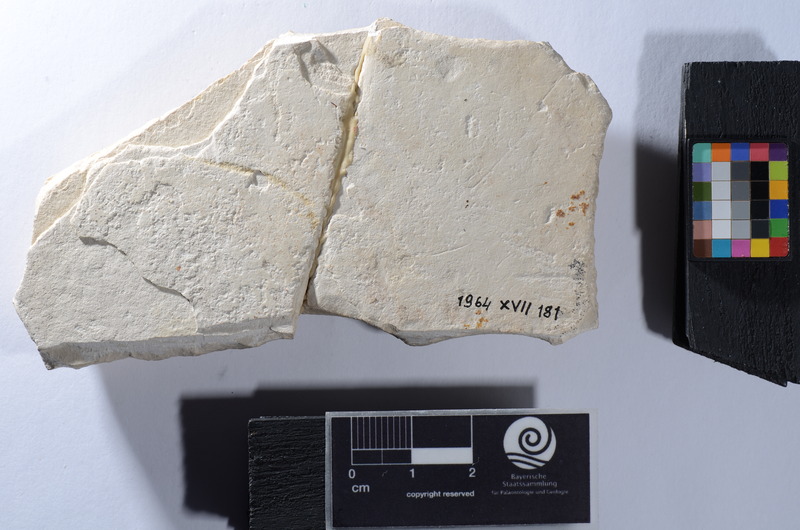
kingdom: Animalia
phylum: Chordata
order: Lepisosteiformes
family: Lepidotidae
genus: Lepidotes
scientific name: Lepidotes
